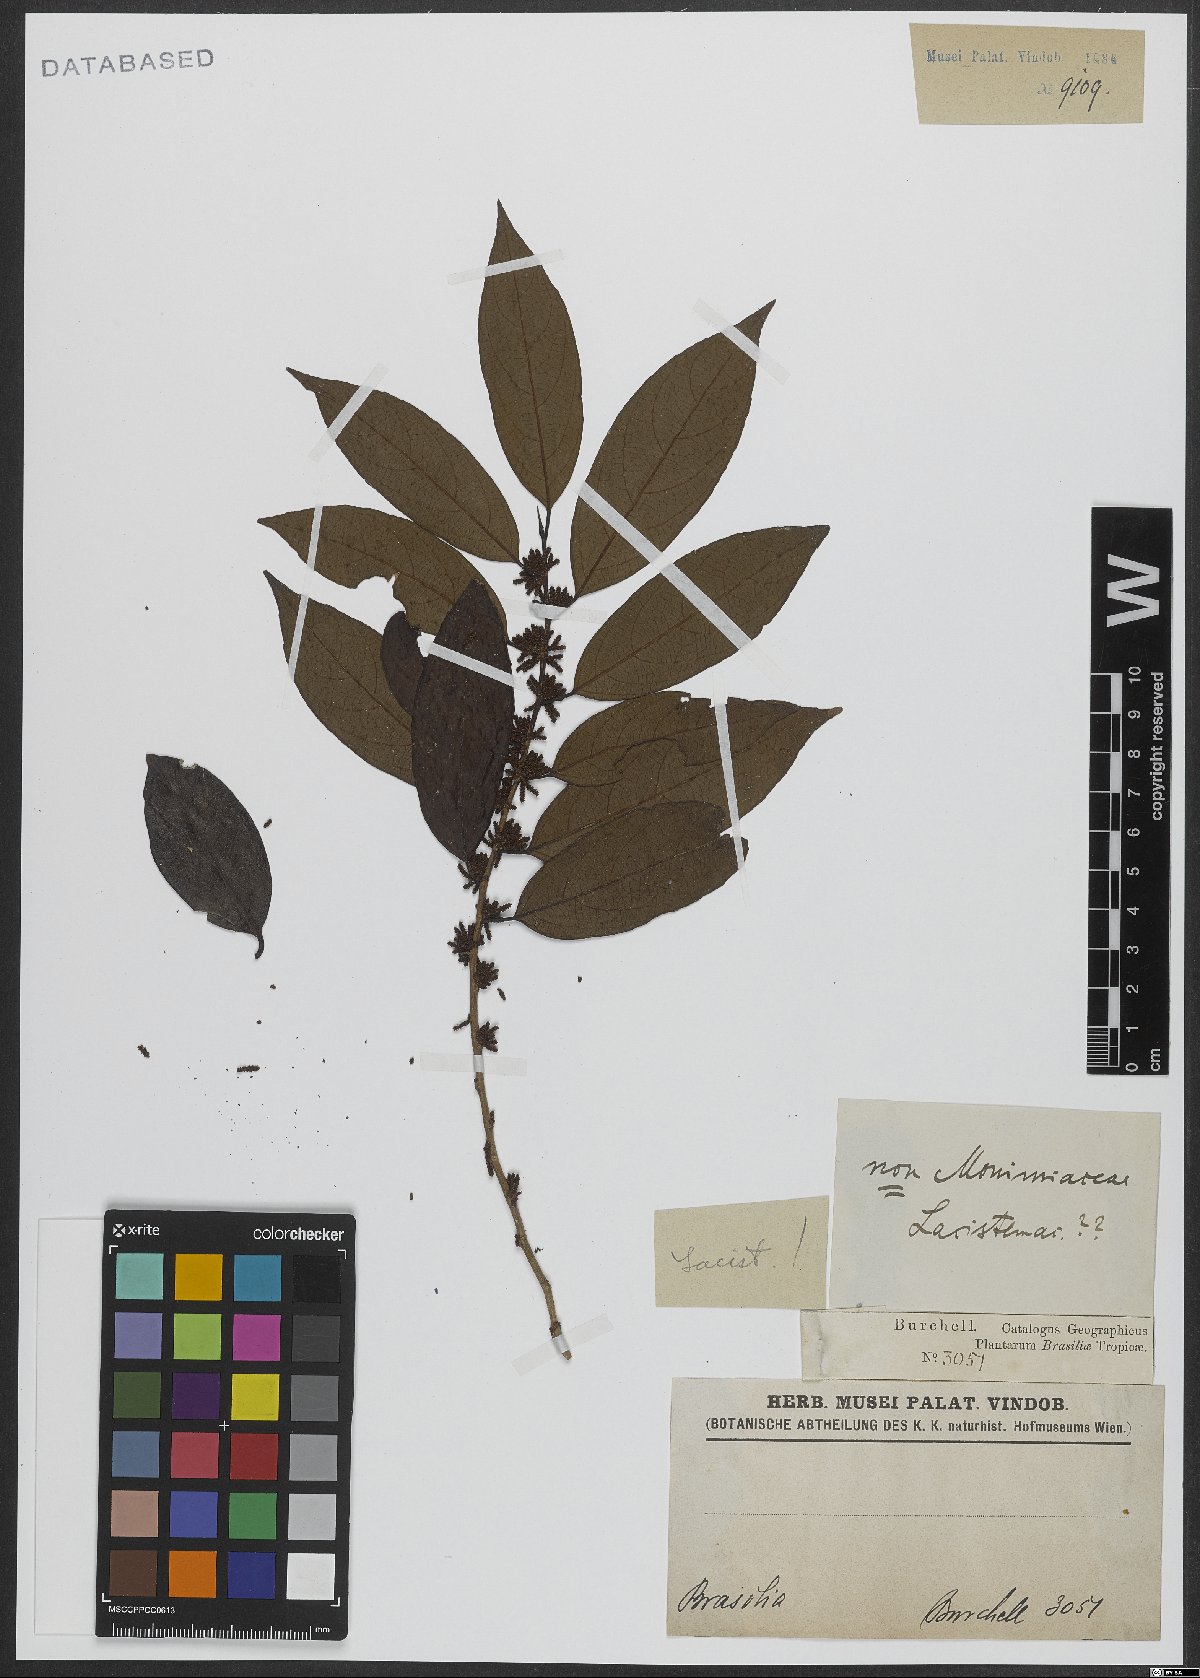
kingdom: Plantae
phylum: Tracheophyta
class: Magnoliopsida
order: Malpighiales
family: Lacistemataceae
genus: Lacistema
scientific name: Lacistema
